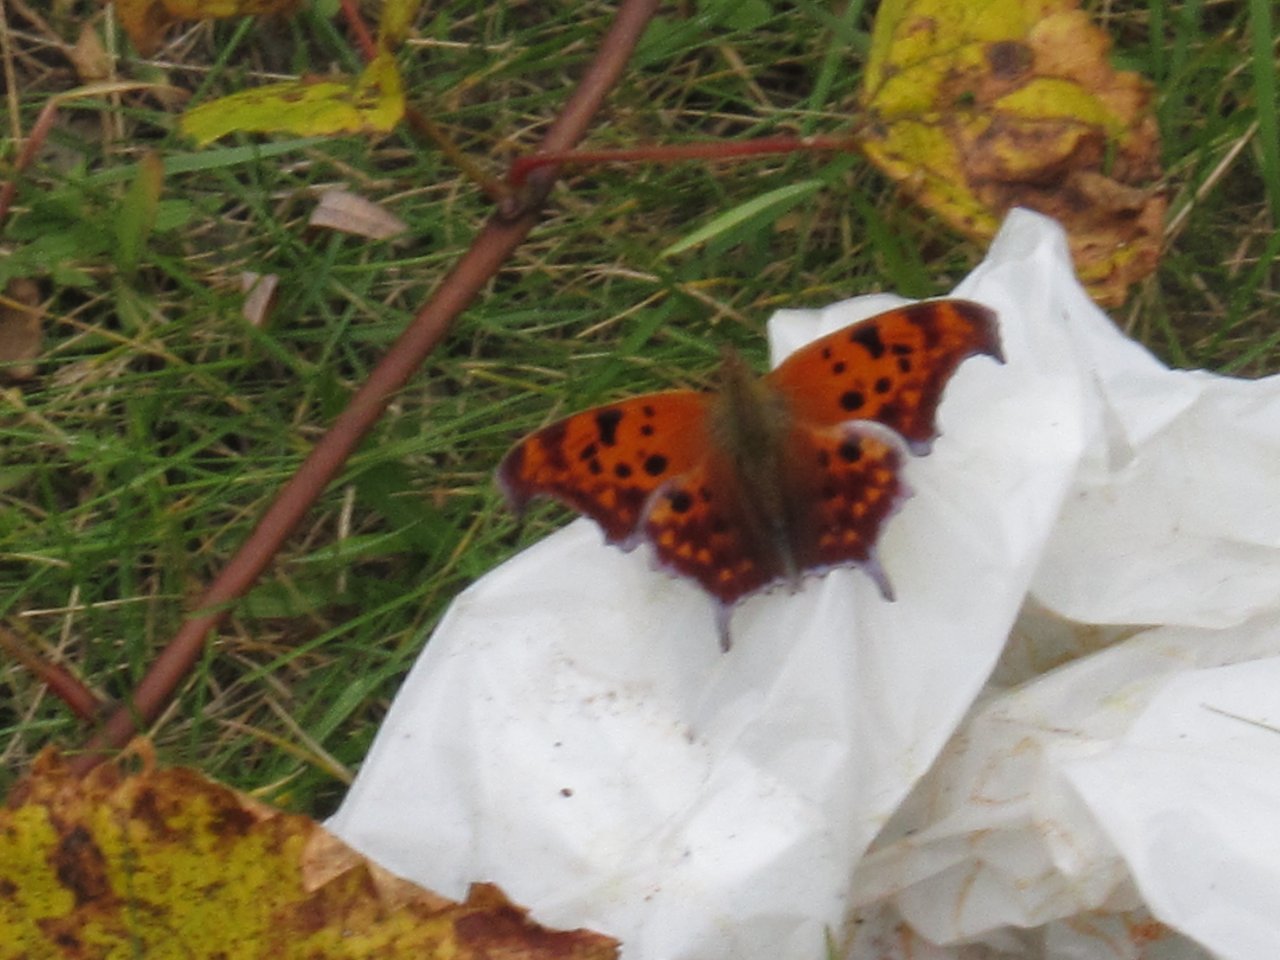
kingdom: Animalia
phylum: Arthropoda
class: Insecta
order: Lepidoptera
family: Nymphalidae
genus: Polygonia
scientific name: Polygonia interrogationis
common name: Question Mark
